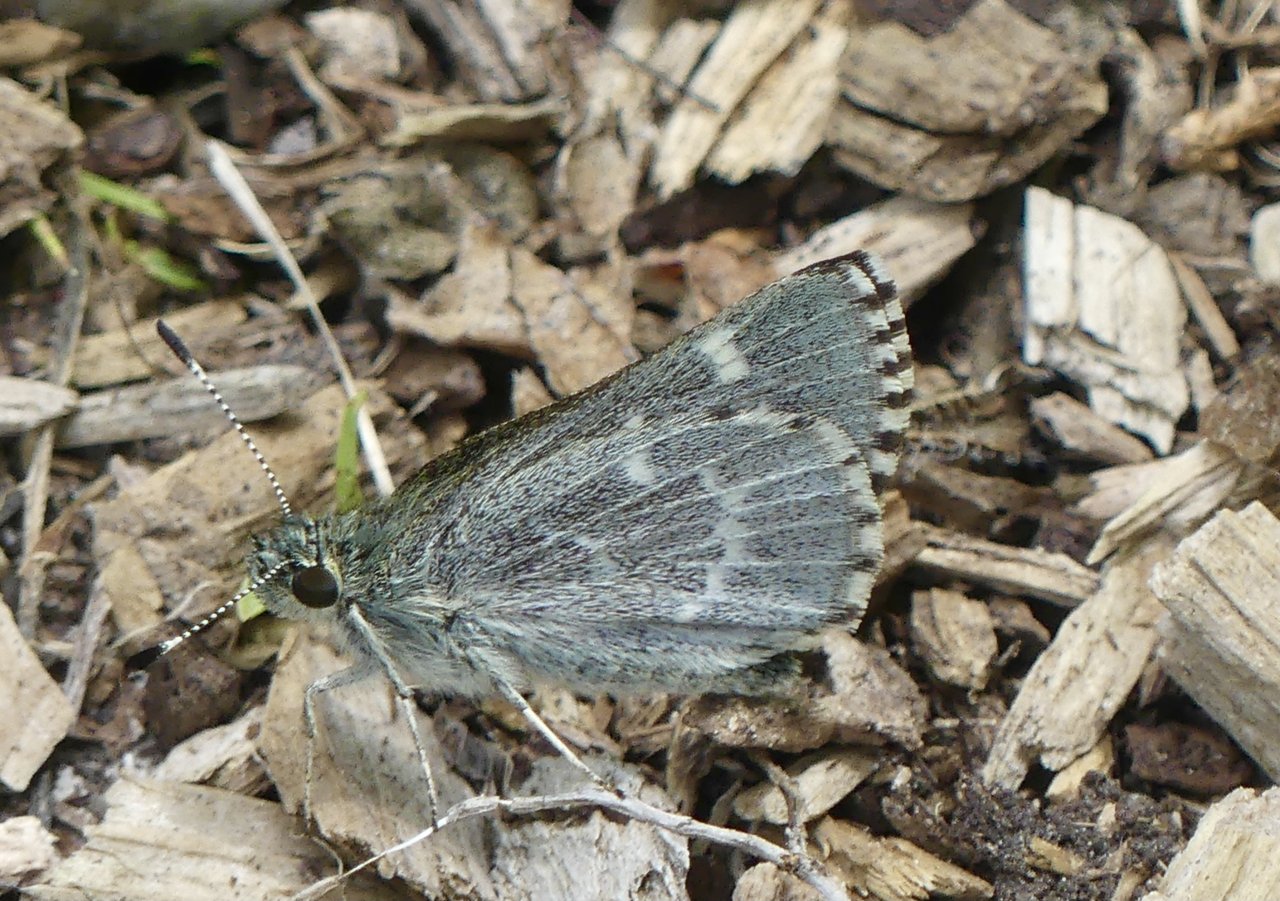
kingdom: Animalia
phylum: Arthropoda
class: Insecta
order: Lepidoptera
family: Hesperiidae
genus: Mastor
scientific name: Mastor hegon
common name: Pepper and Salt Skipper
